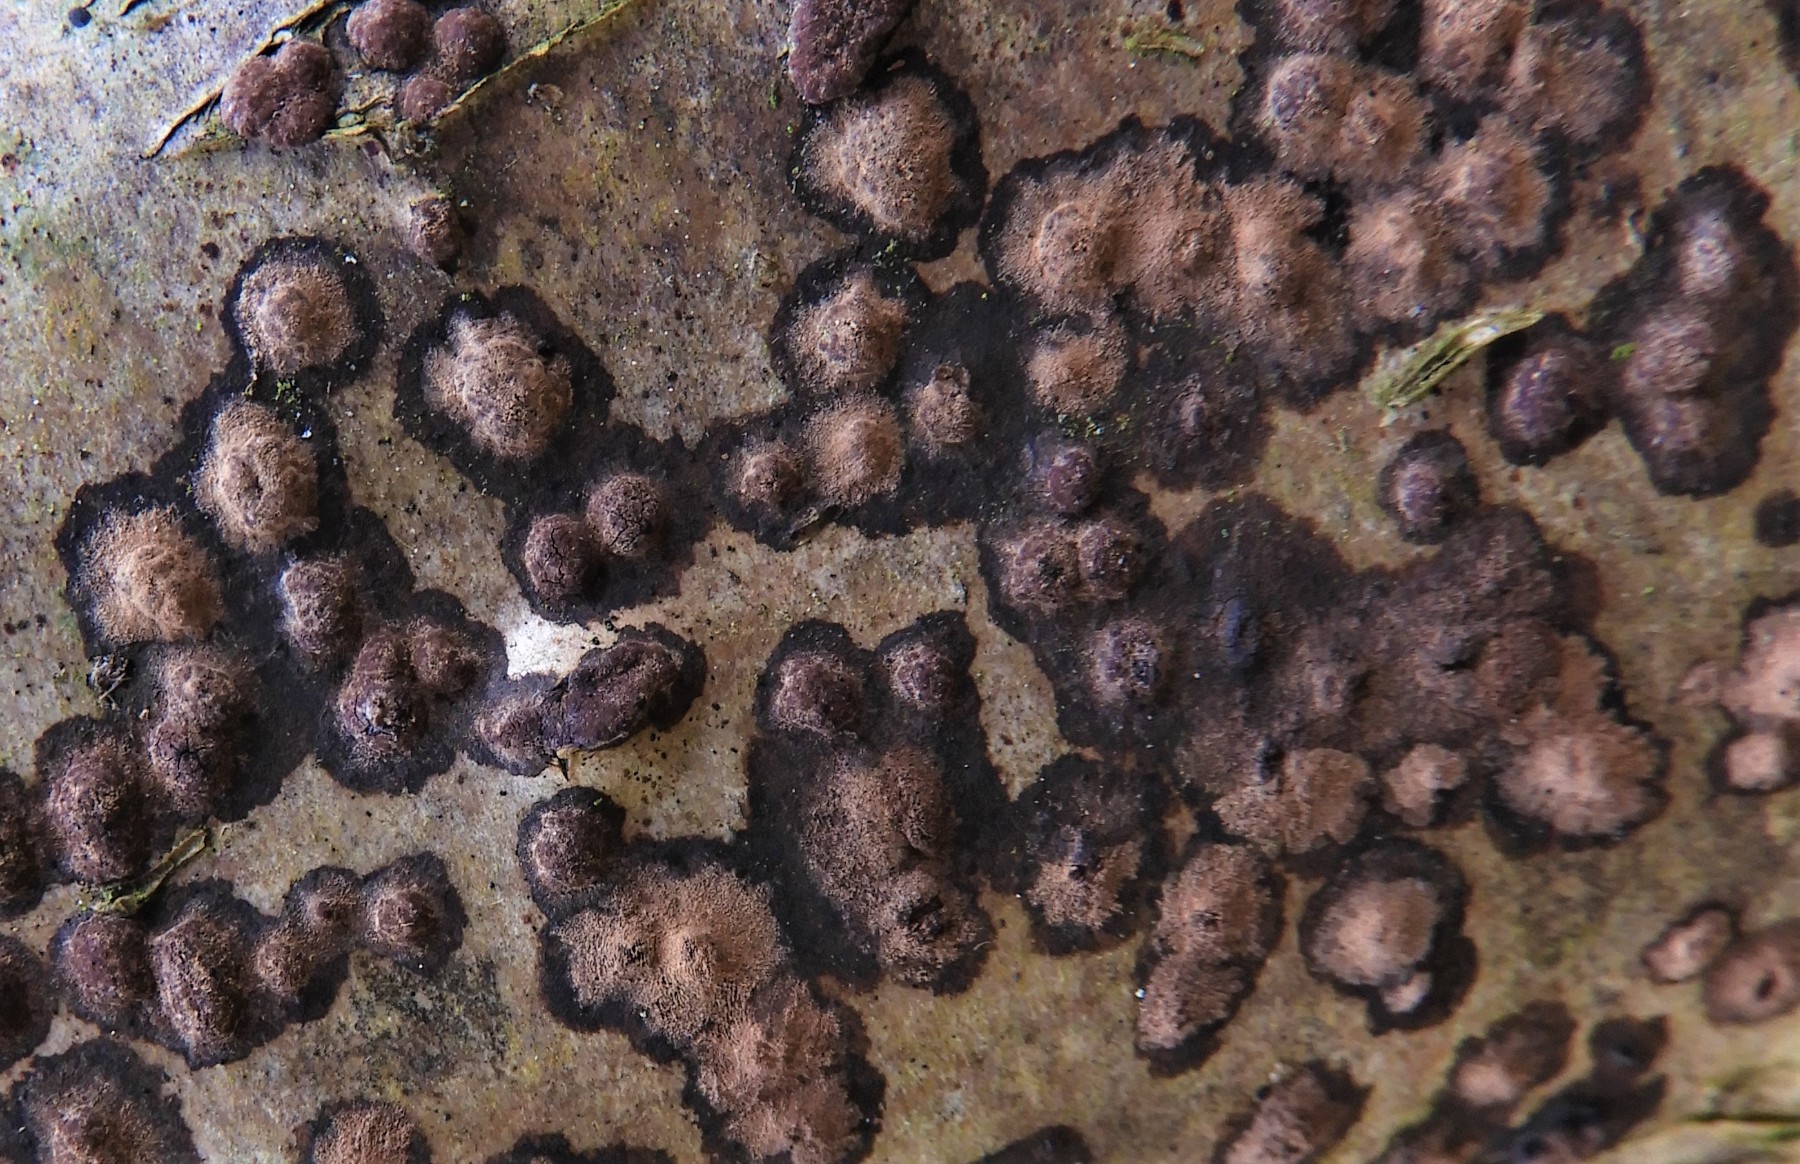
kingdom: Fungi
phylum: Ascomycota
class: Sordariomycetes
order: Xylariales
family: Hypoxylaceae
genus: Hypoxylon
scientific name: Hypoxylon fuscum
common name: kegleformet kulbær
